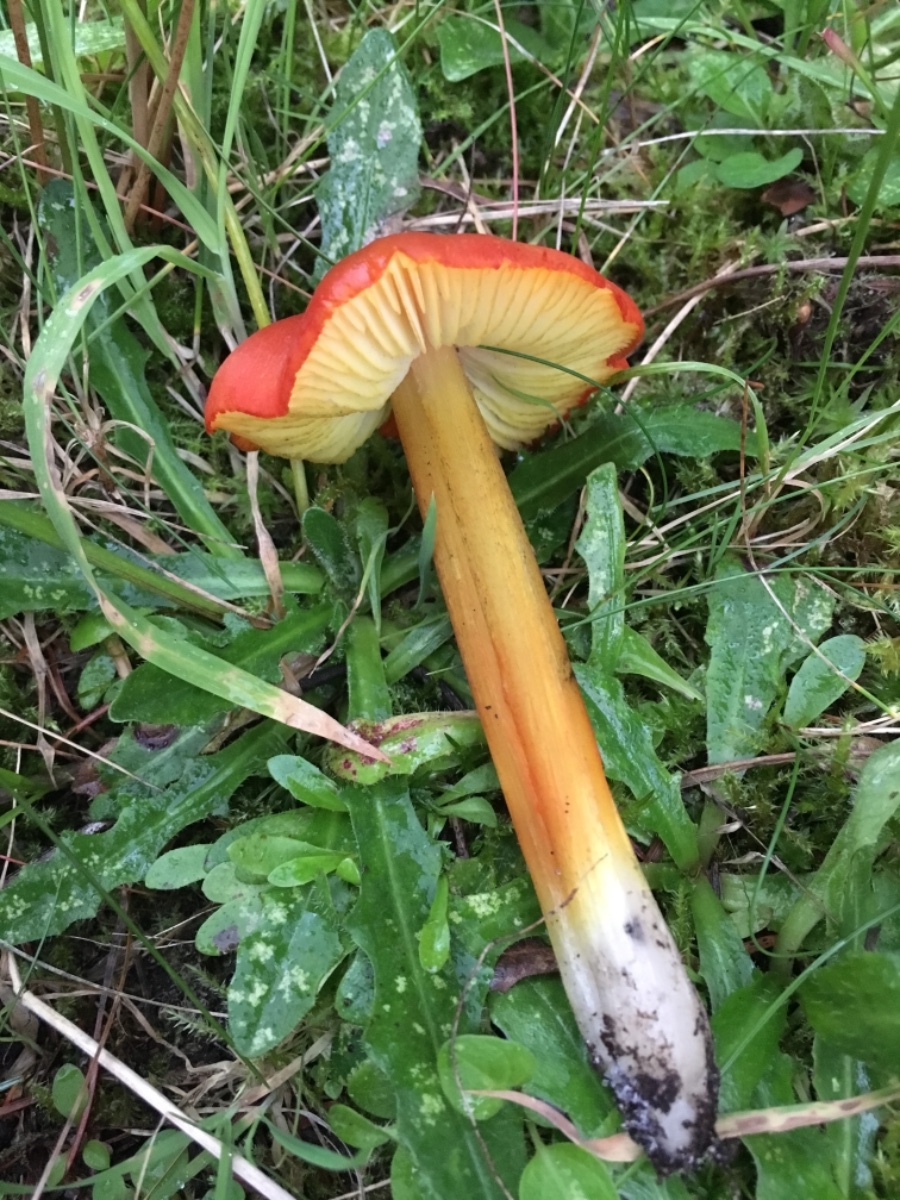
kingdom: Fungi
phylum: Basidiomycota
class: Agaricomycetes
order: Agaricales
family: Hygrophoraceae
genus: Hygrocybe
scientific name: Hygrocybe conica
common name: kegle-vokshat
